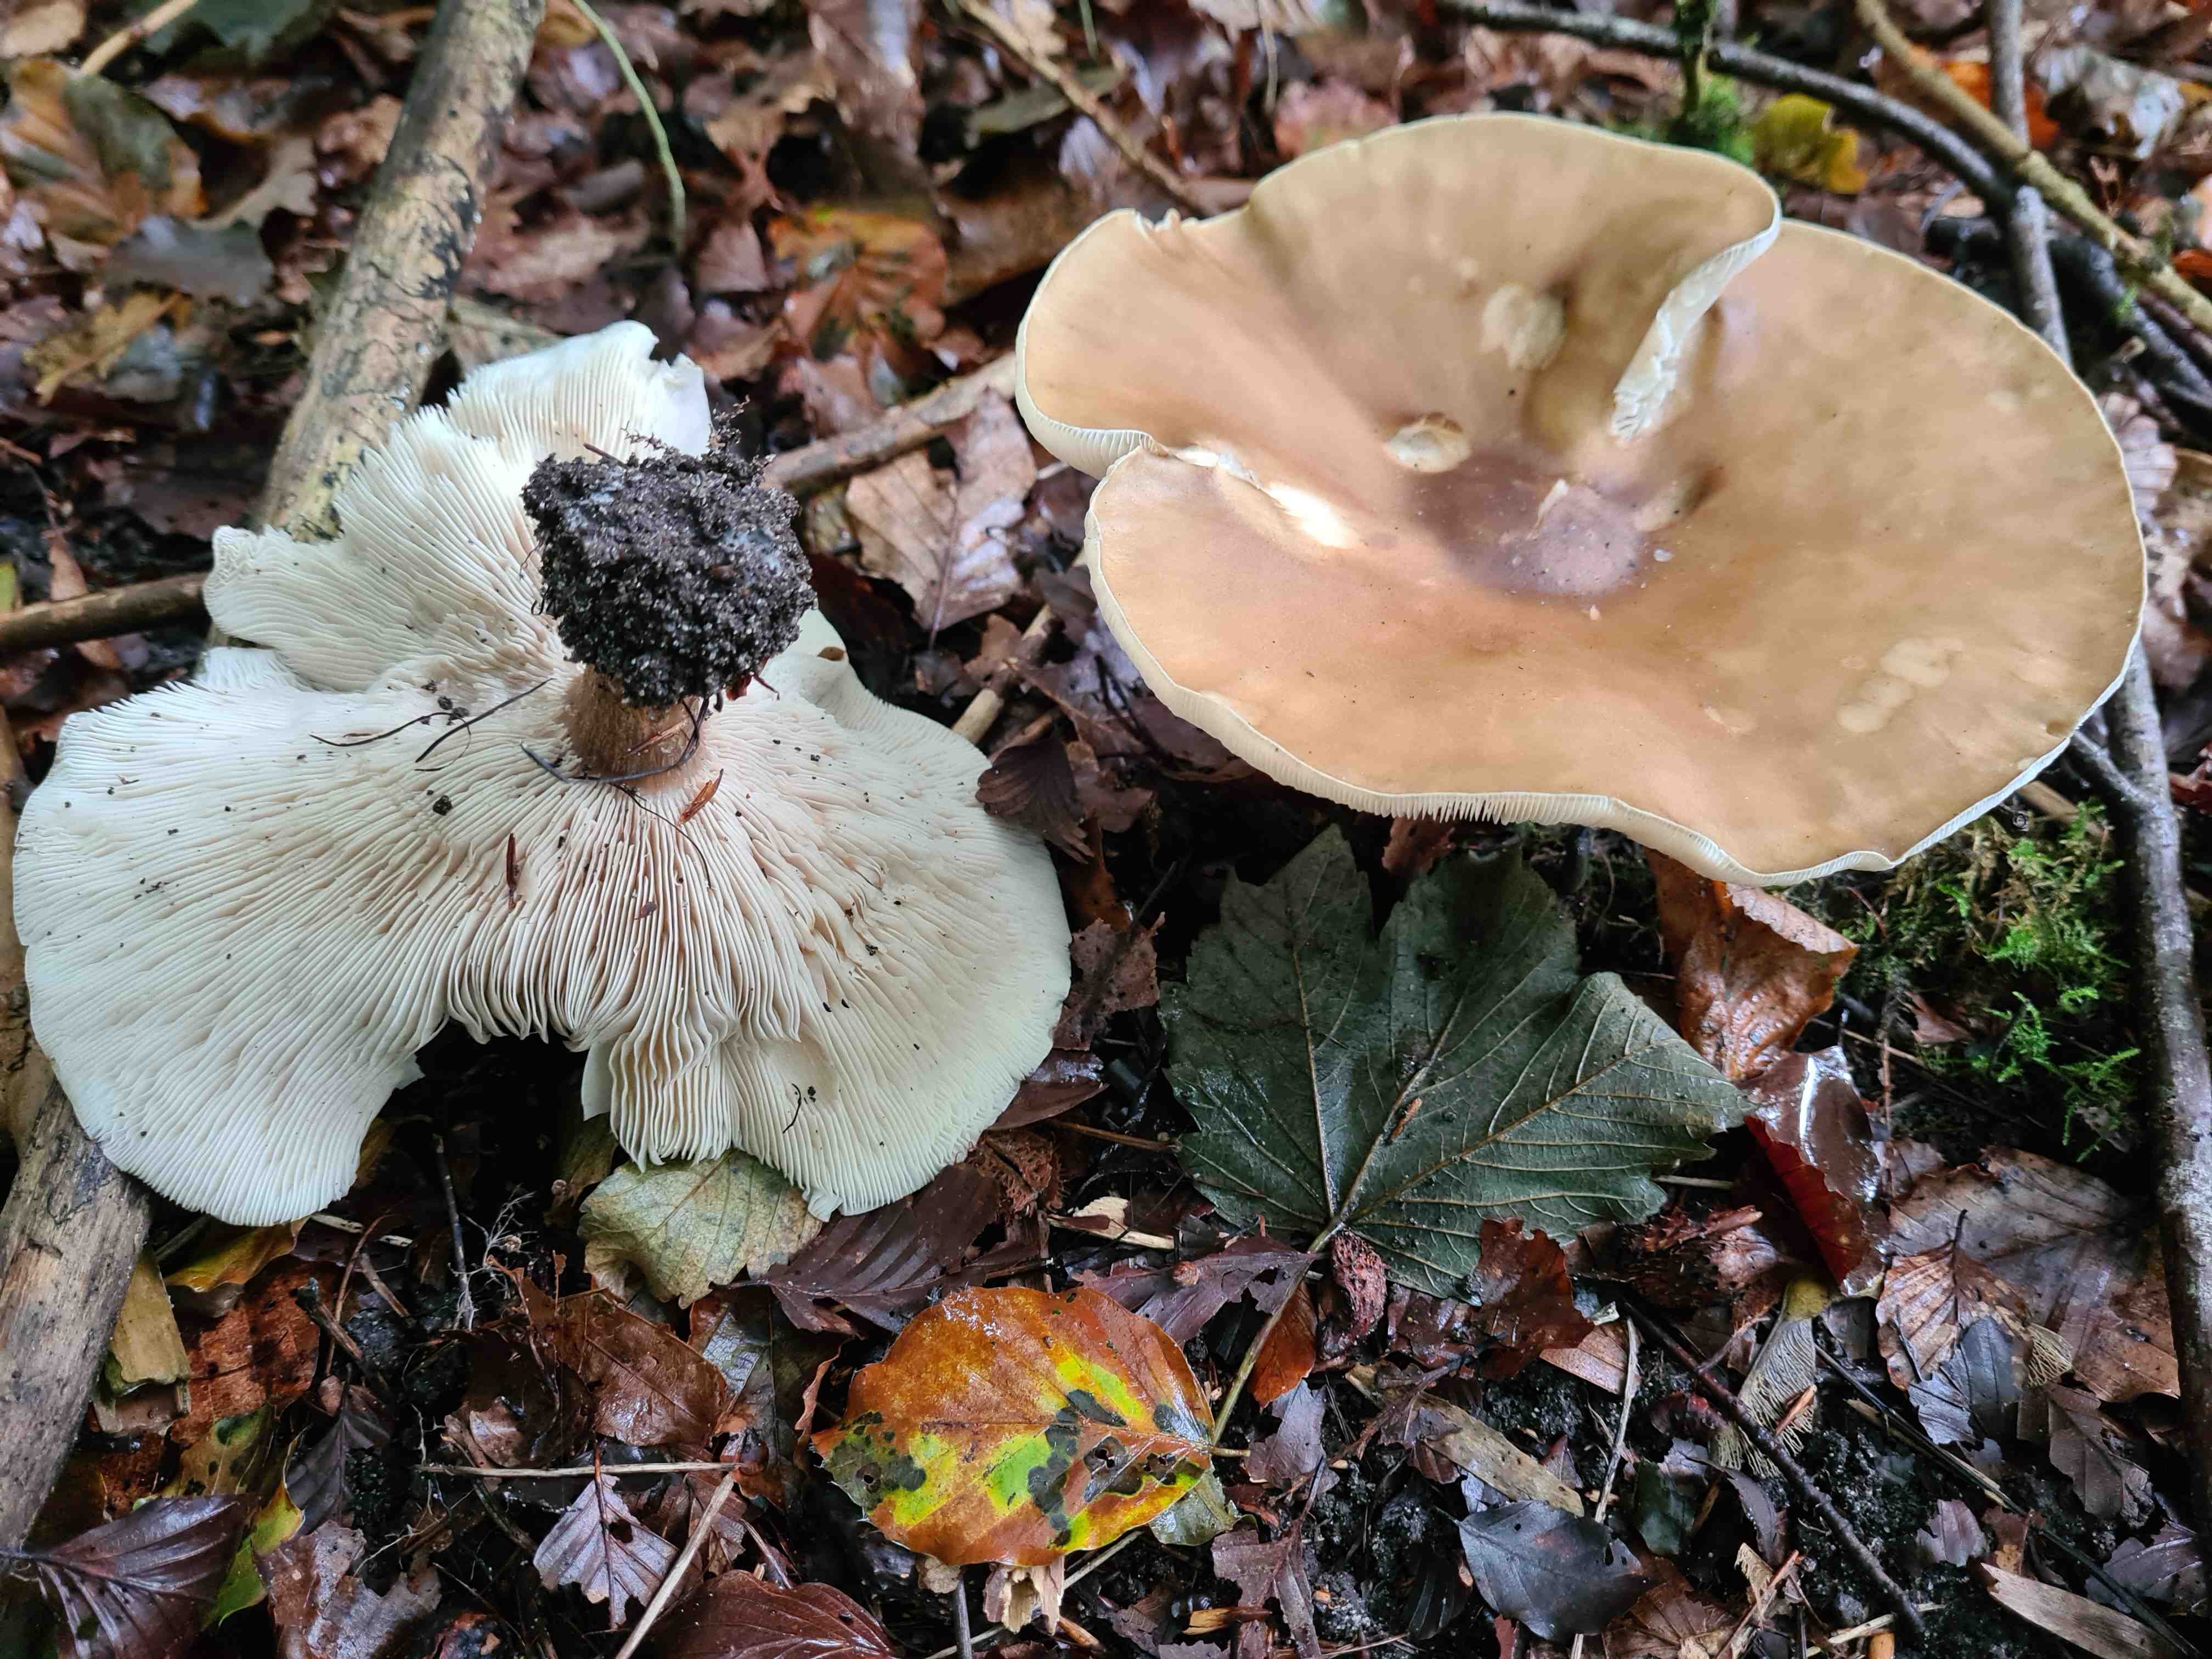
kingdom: Fungi
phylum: Basidiomycota
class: Agaricomycetes
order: Agaricales
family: Tricholomataceae
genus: Melanoleuca
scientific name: Melanoleuca grammopodia
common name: stribestokket munkehat
